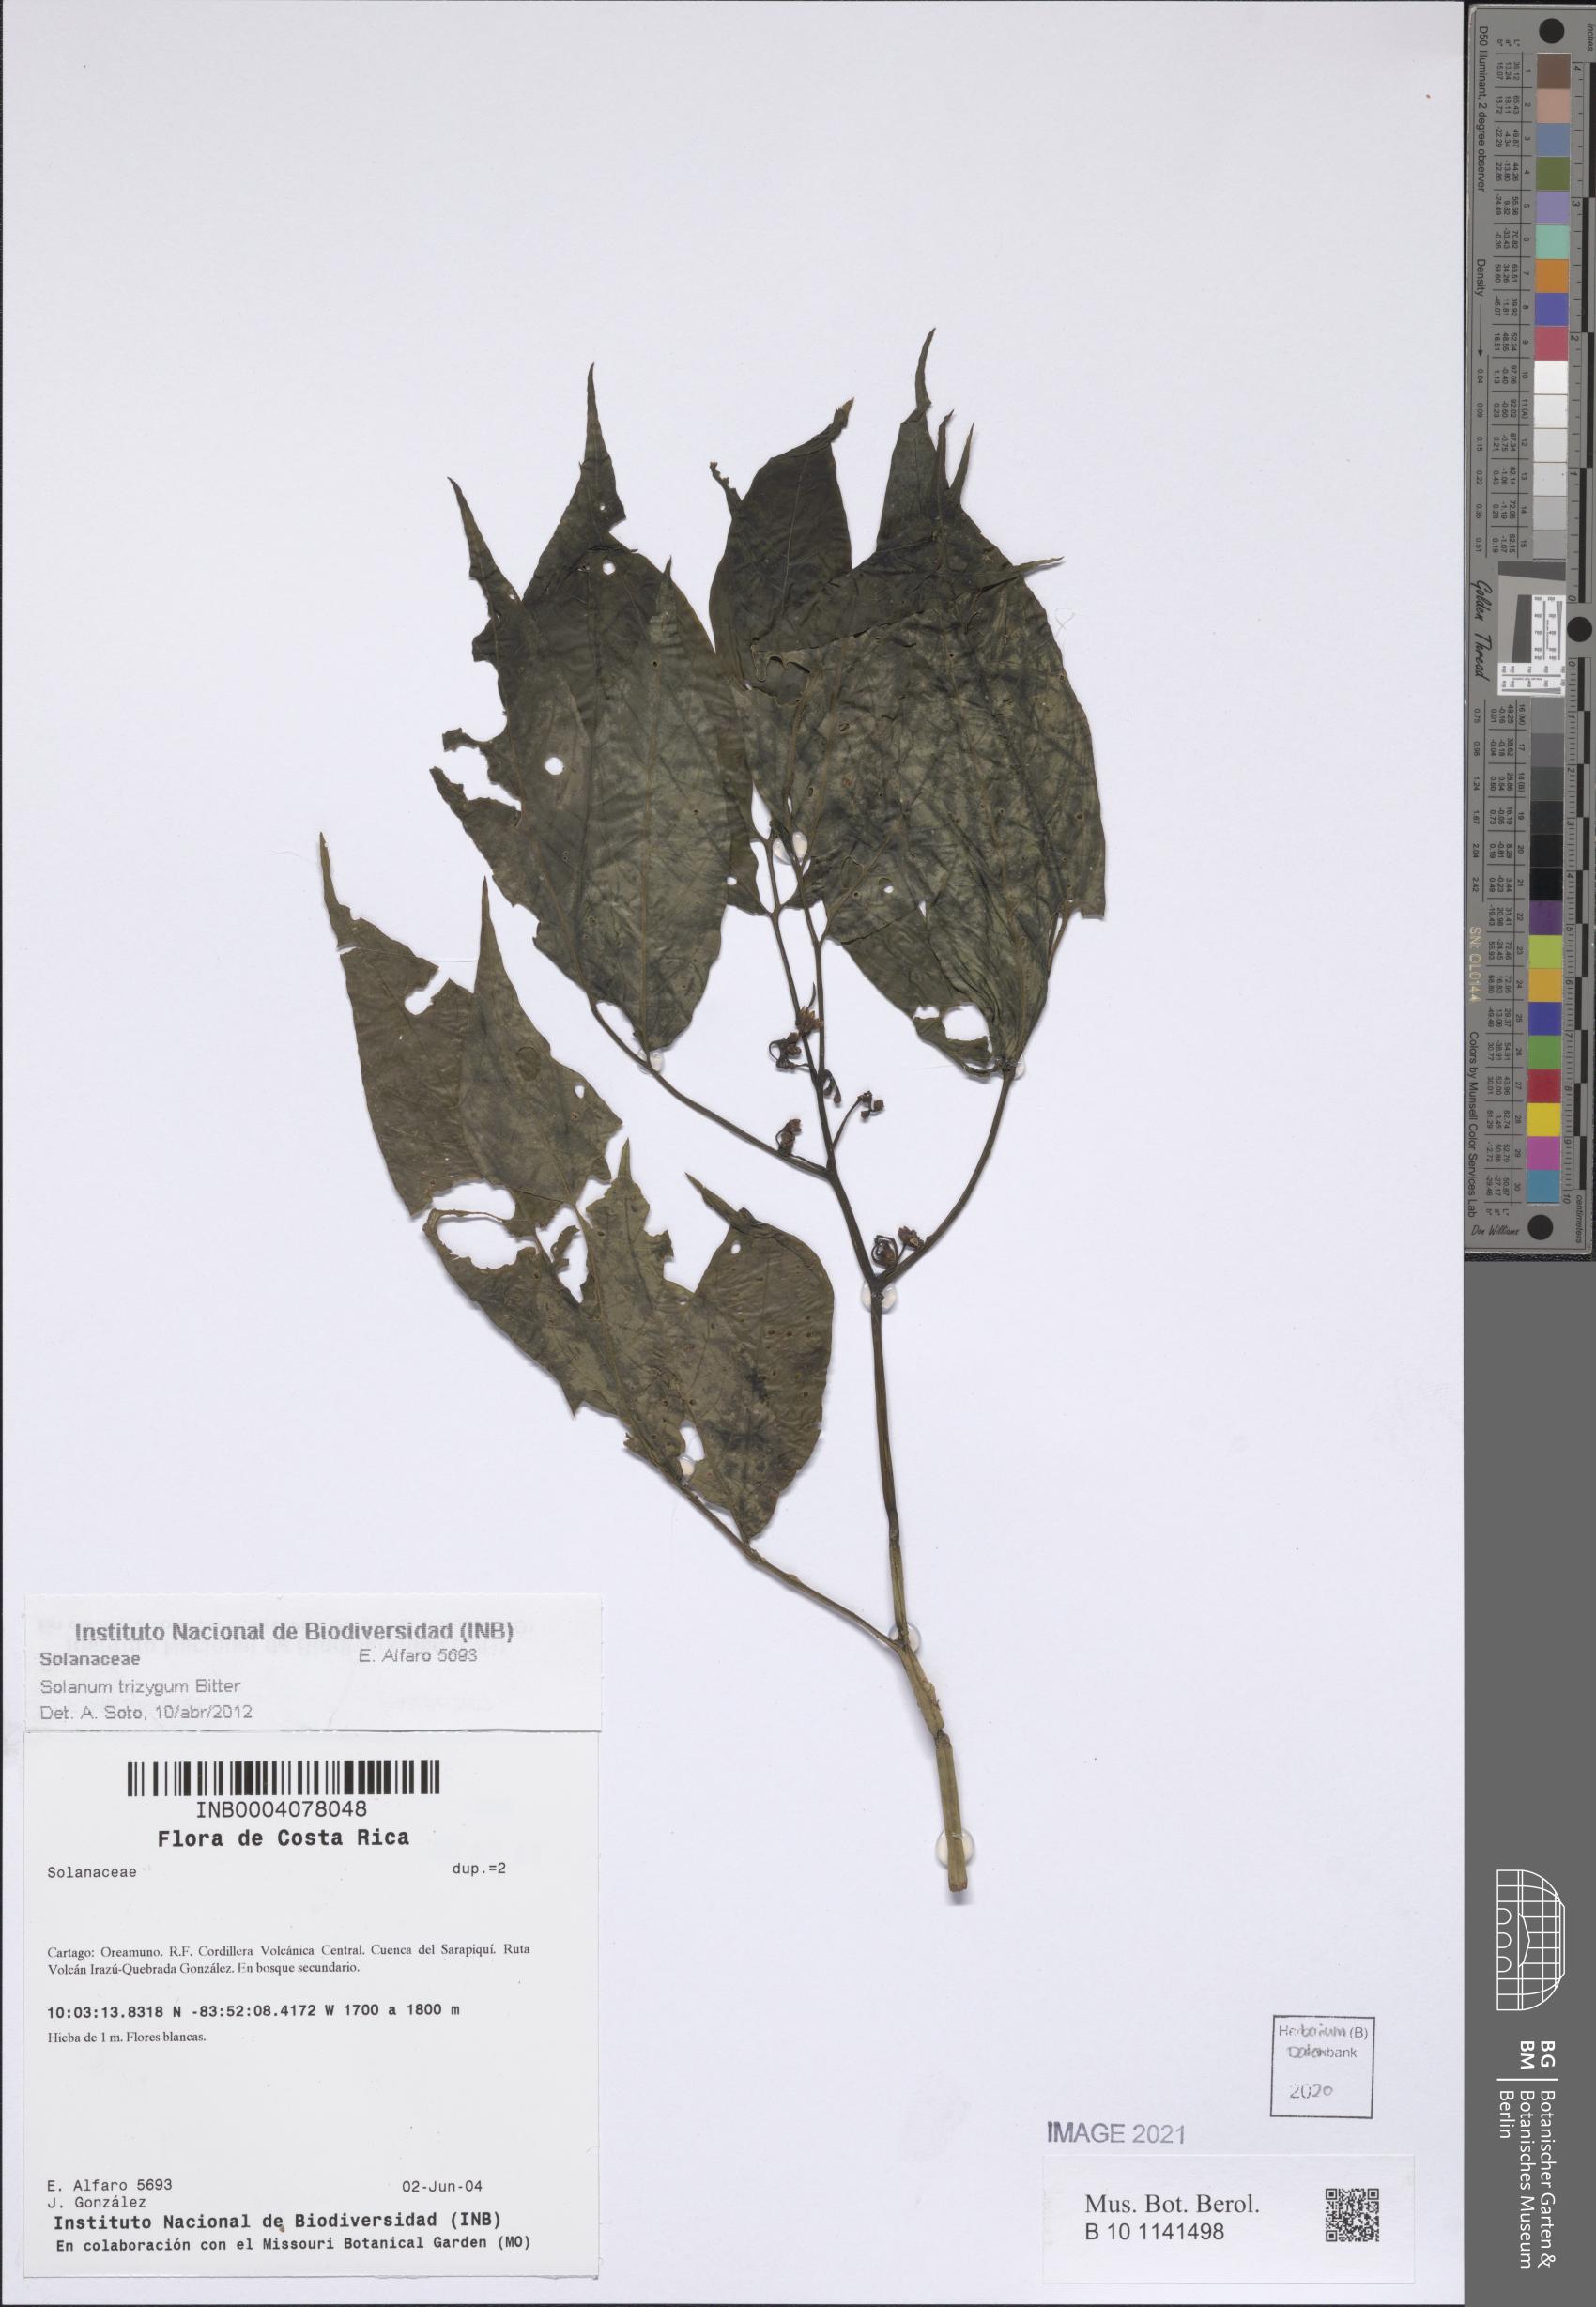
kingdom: Plantae
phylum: Tracheophyta
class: Magnoliopsida
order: Solanales
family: Solanaceae
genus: Solanum
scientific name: Solanum trizygum
